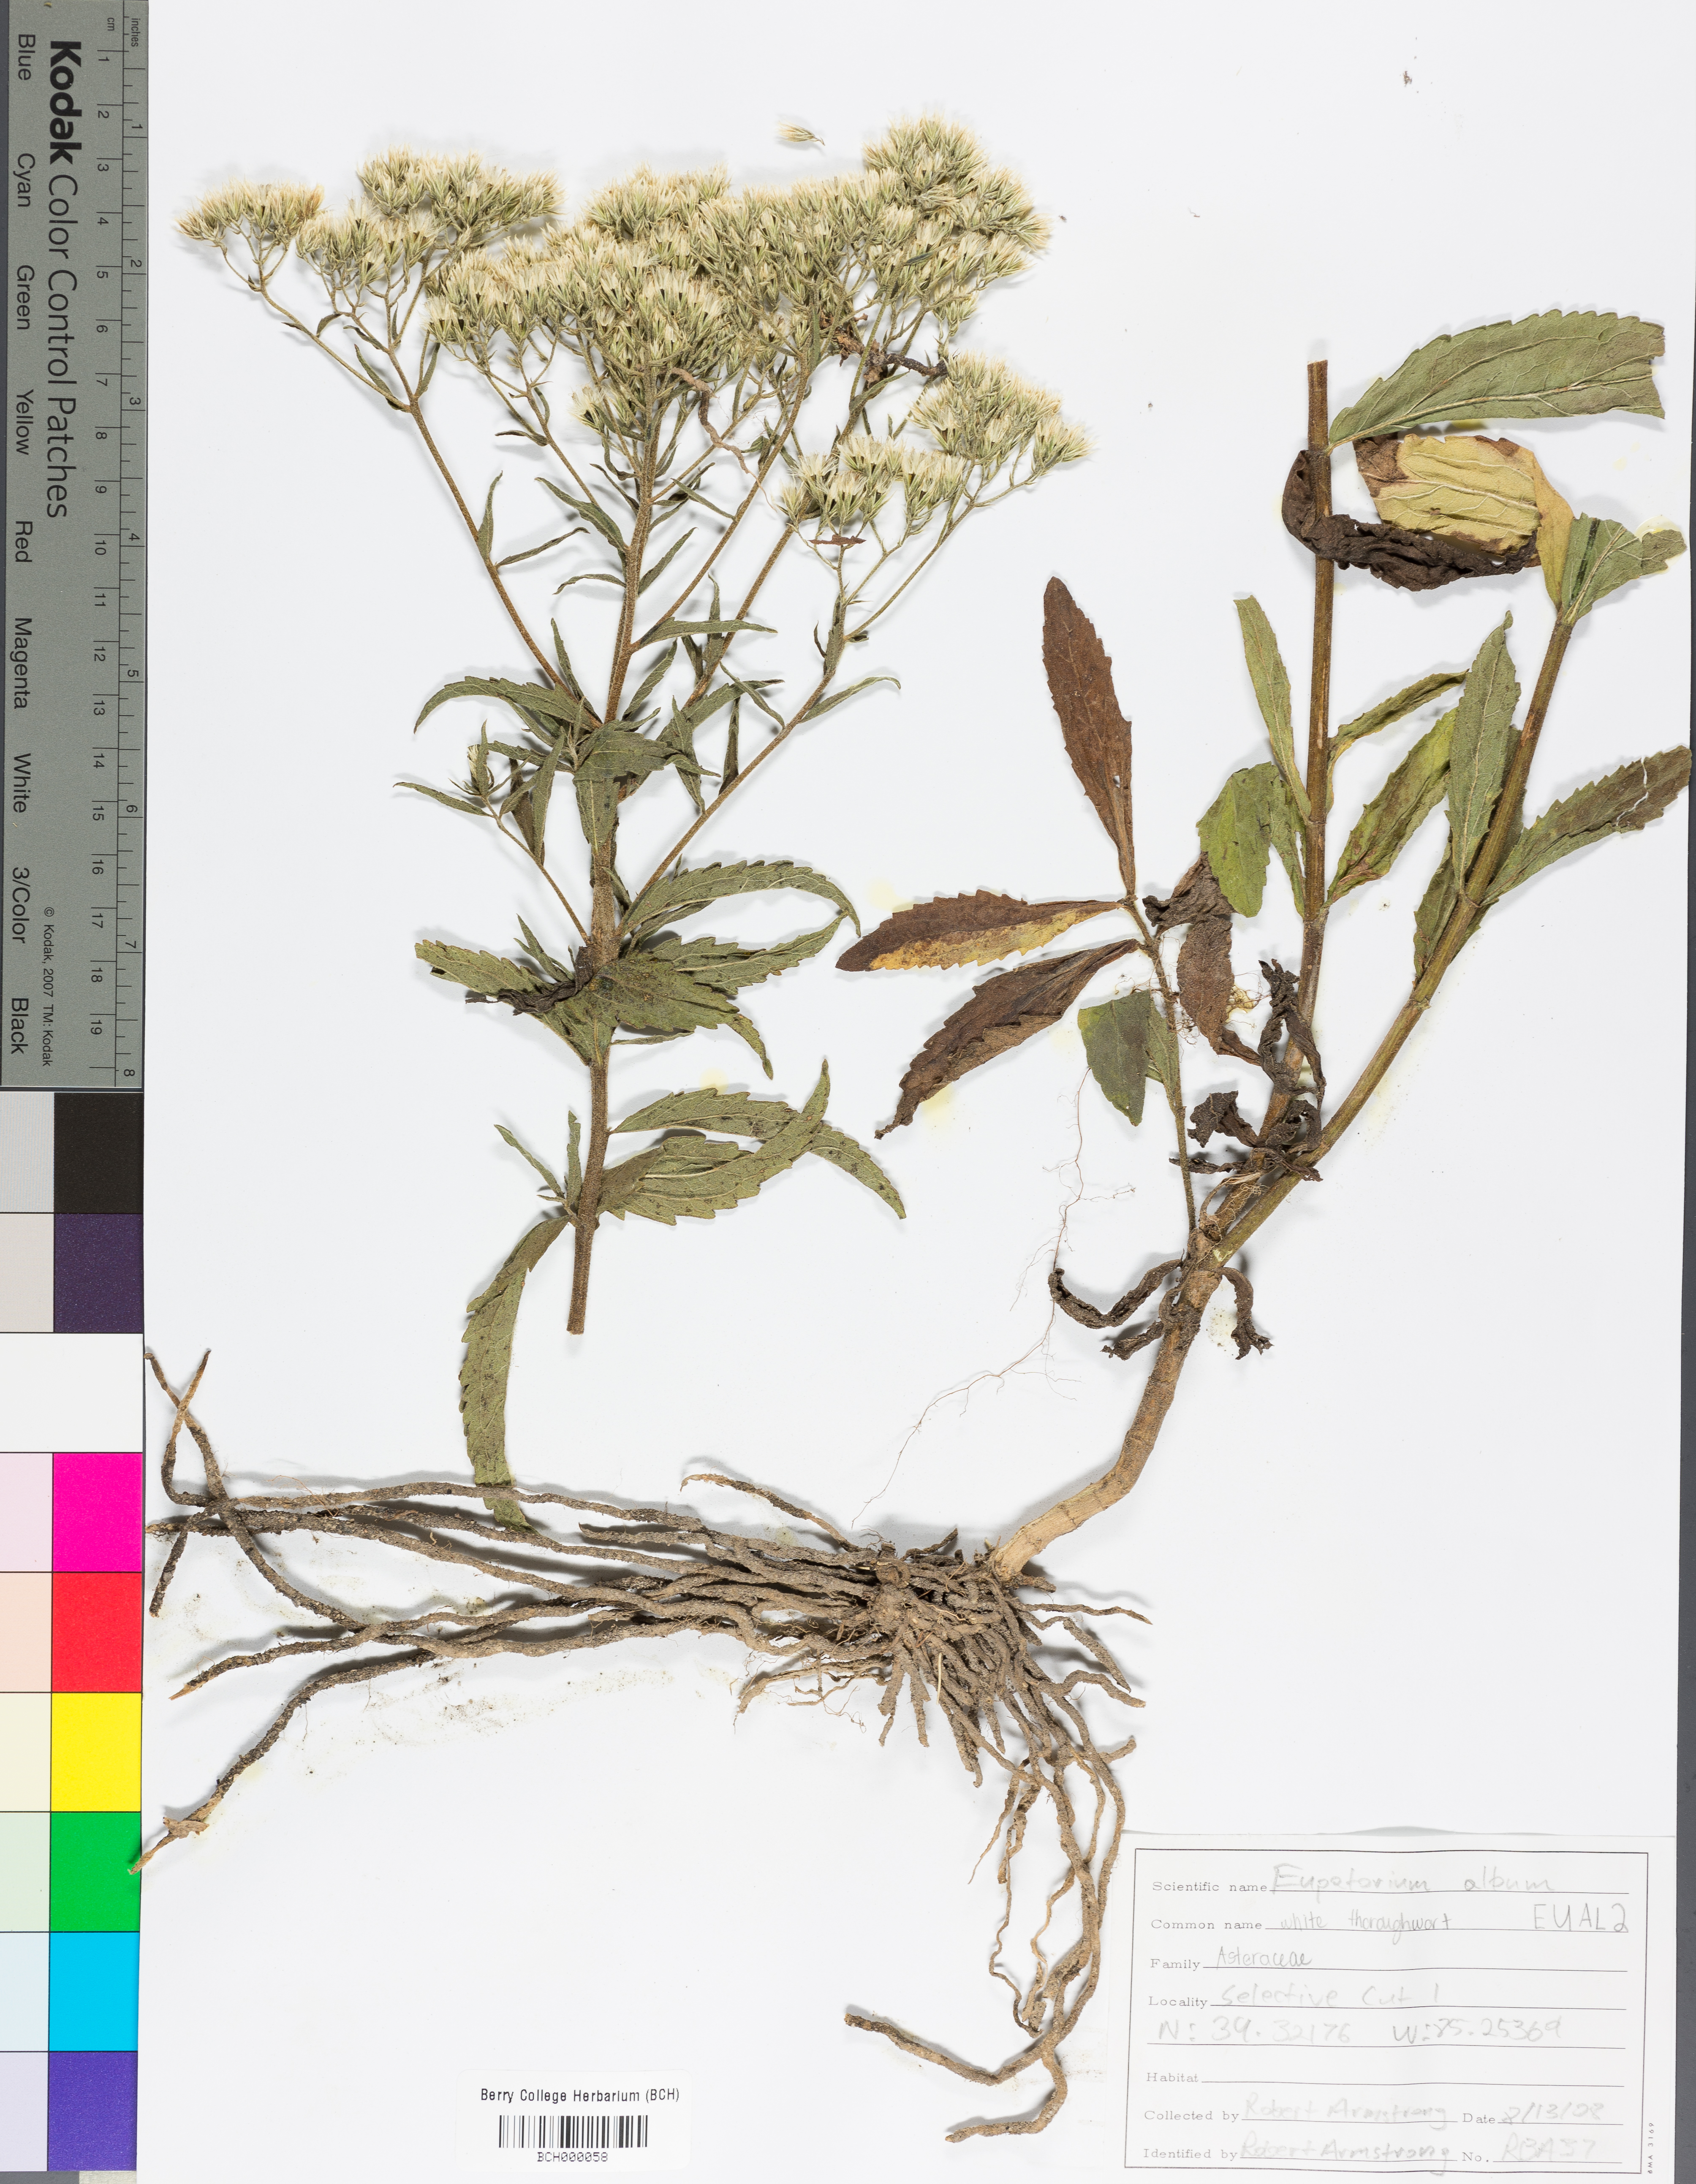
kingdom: Plantae
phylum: Tracheophyta
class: Magnoliopsida
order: Asterales
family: Asteraceae
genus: Eupatorium
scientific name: Eupatorium album
